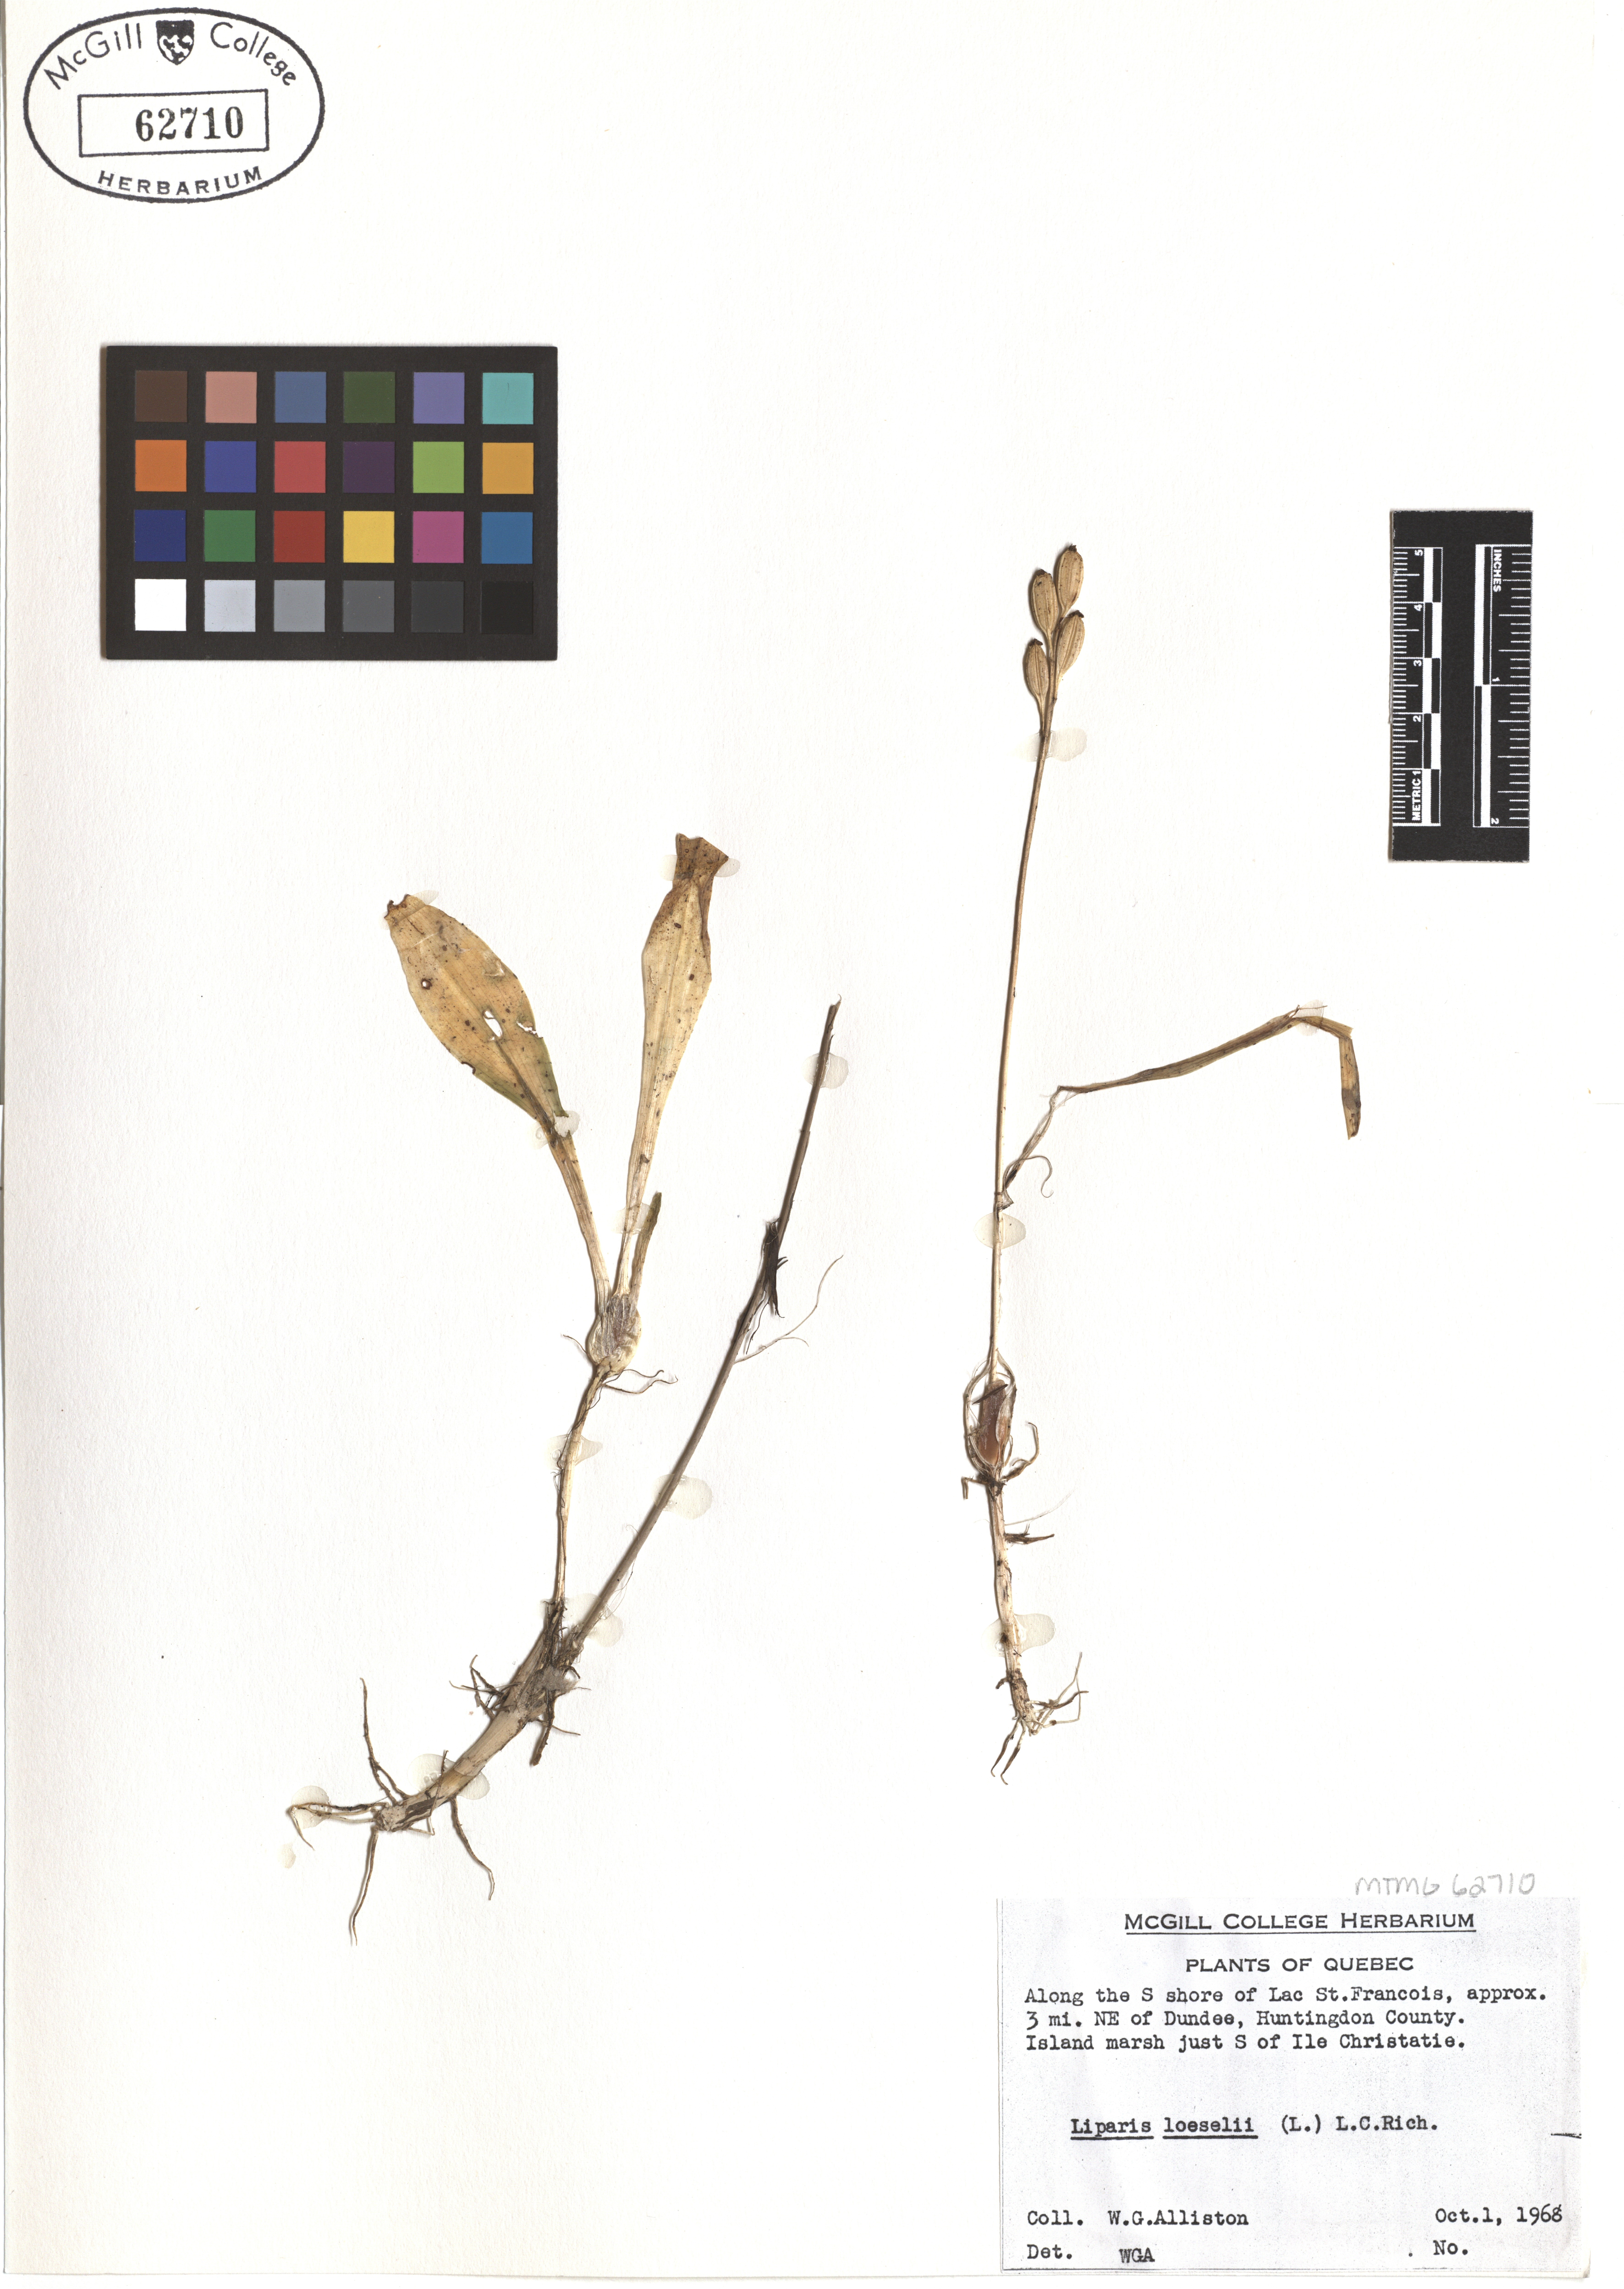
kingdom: Animalia
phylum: Arthropoda
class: Insecta
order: Coleoptera
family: Curculionidae
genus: Liparis
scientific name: Liparis loeselii
